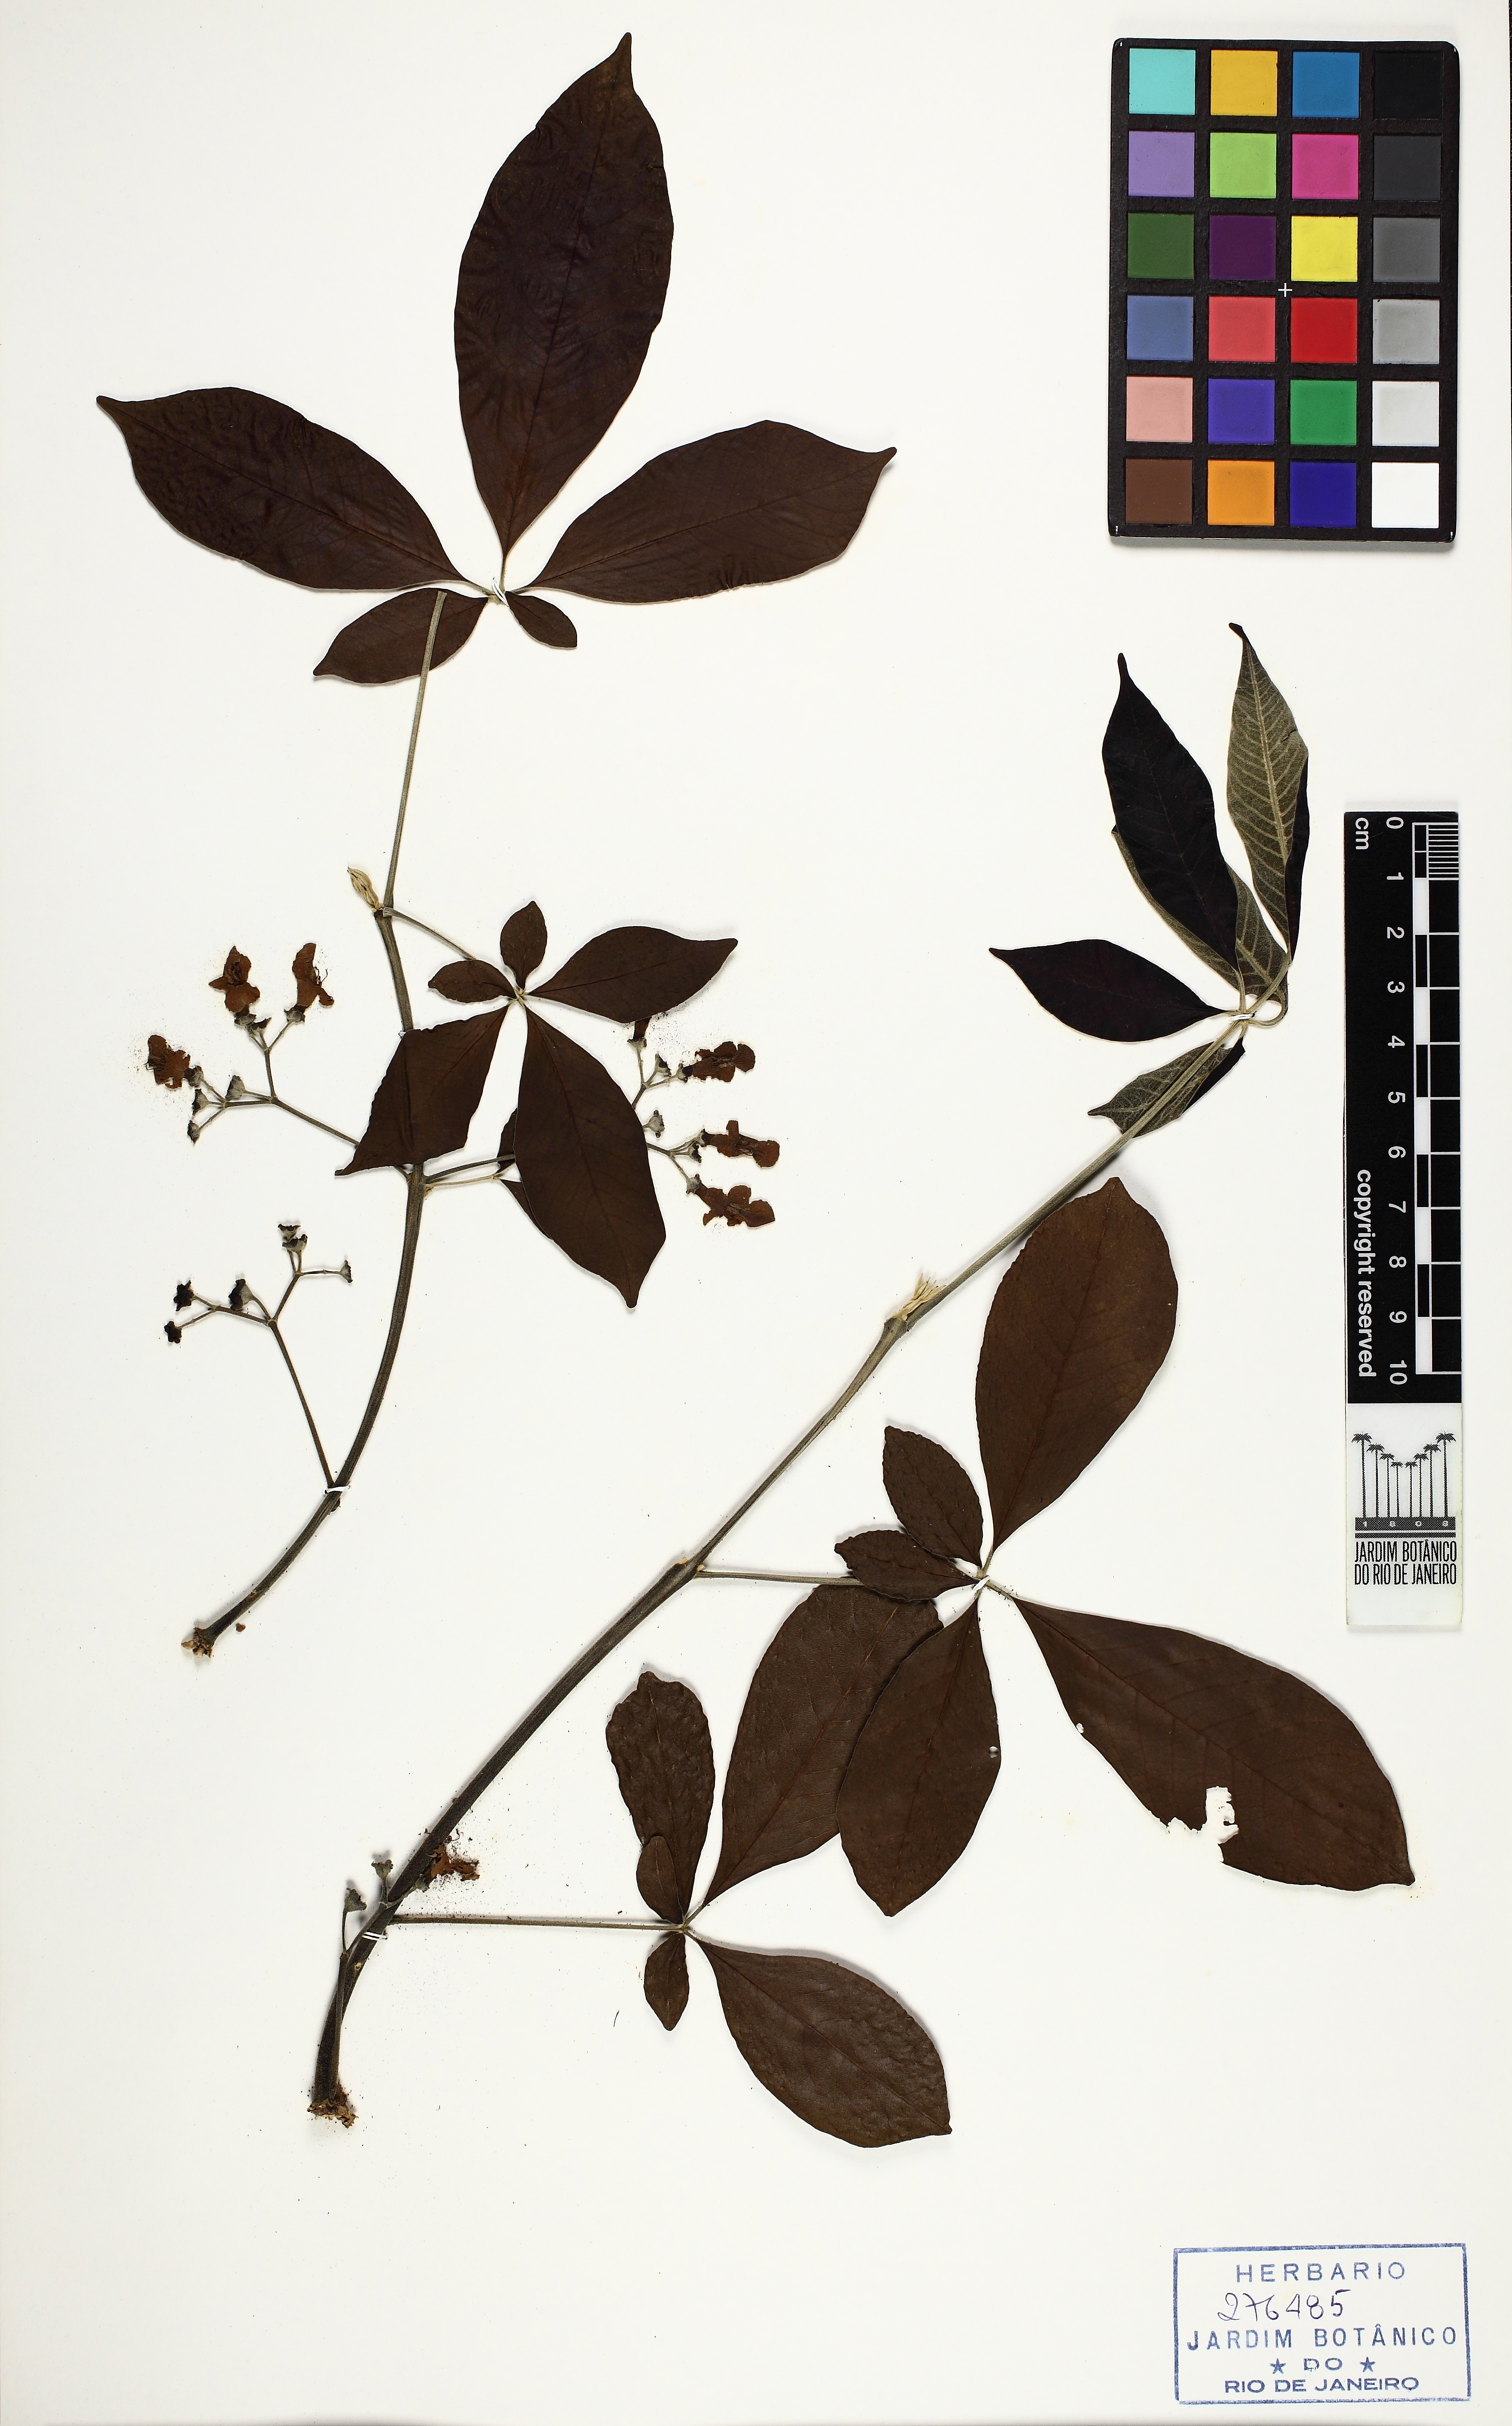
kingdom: Plantae
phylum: Tracheophyta
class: Magnoliopsida
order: Lamiales
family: Lamiaceae
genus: Vitex
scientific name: Vitex cymosa
